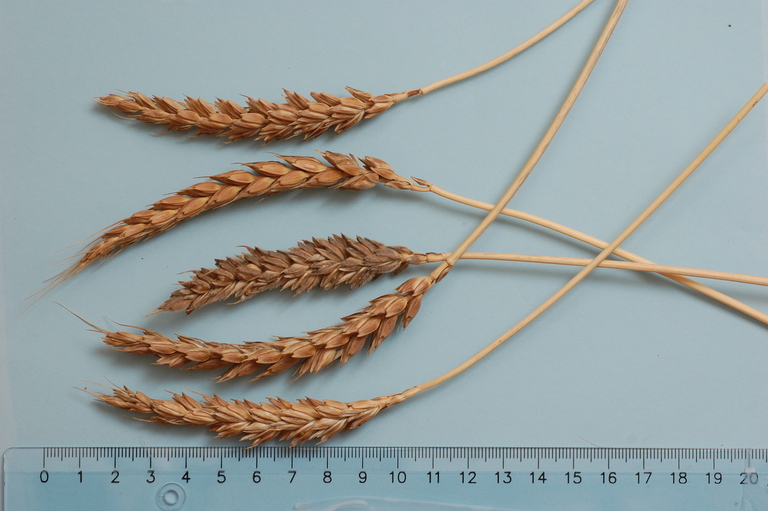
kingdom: Plantae
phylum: Tracheophyta
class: Liliopsida
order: Poales
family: Poaceae
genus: Triticum
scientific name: Triticum aestivum
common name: Common wheat
